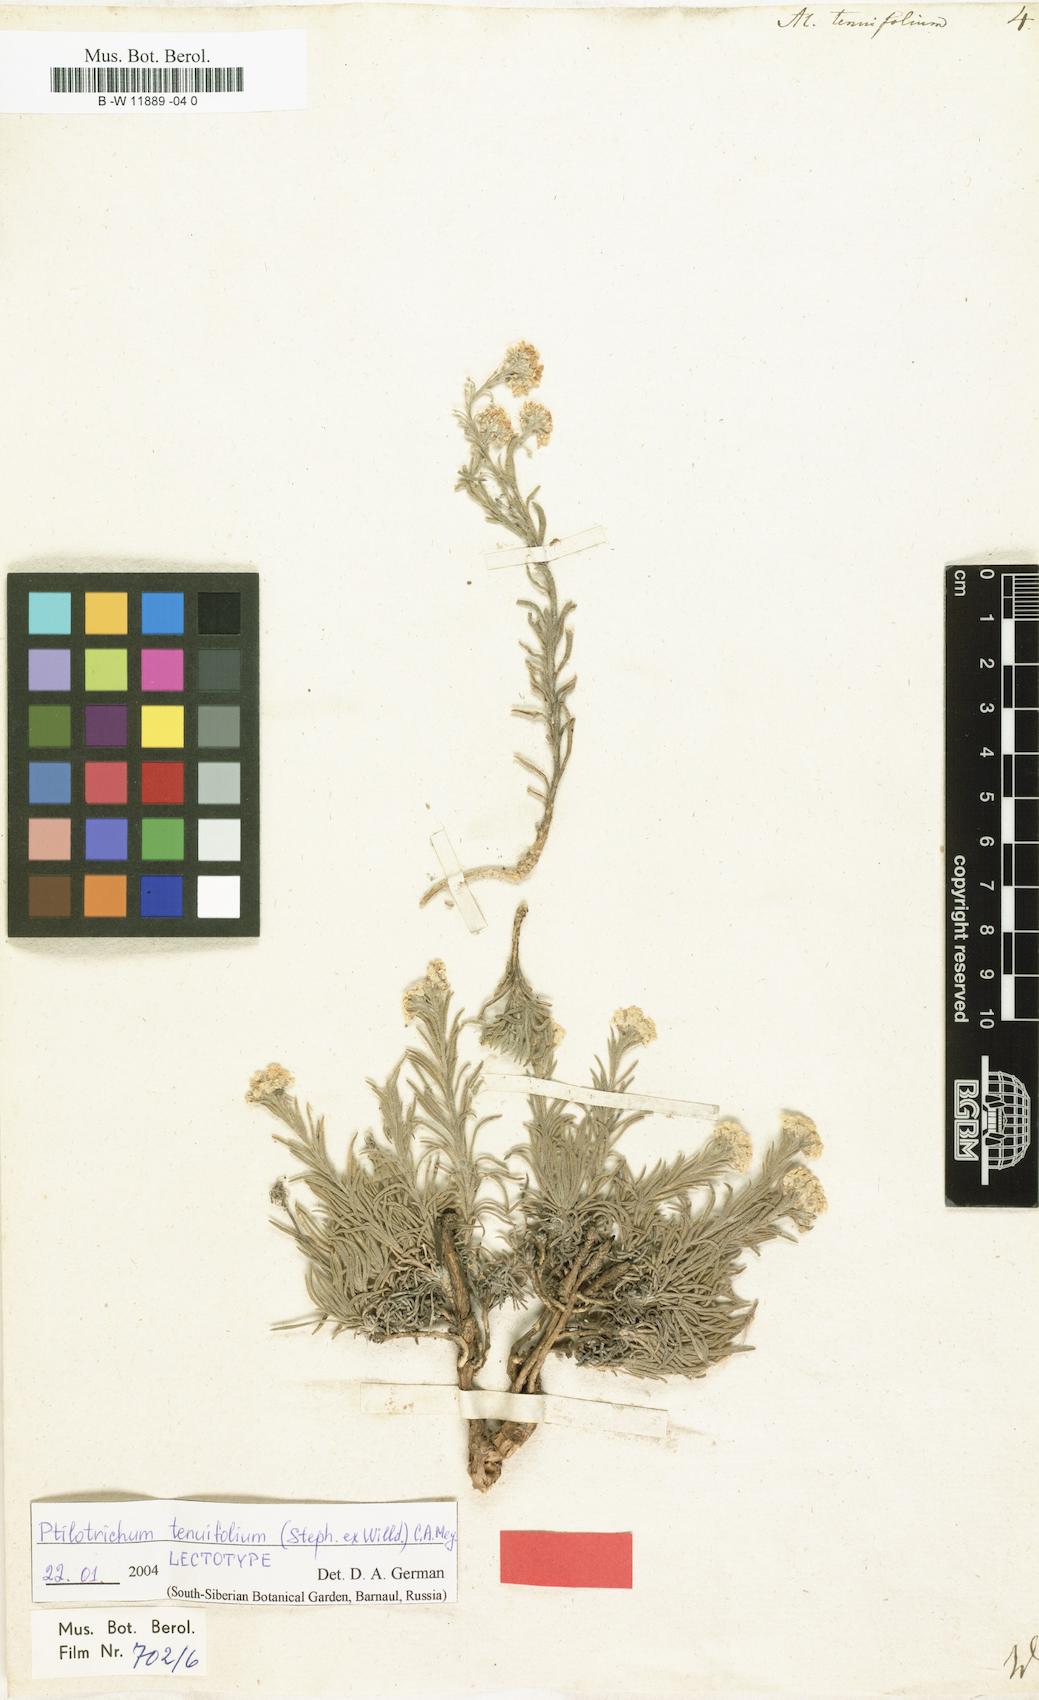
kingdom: Plantae
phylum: Tracheophyta
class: Magnoliopsida
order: Brassicales
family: Brassicaceae
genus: Stevenia
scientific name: Stevenia tenuifolia
